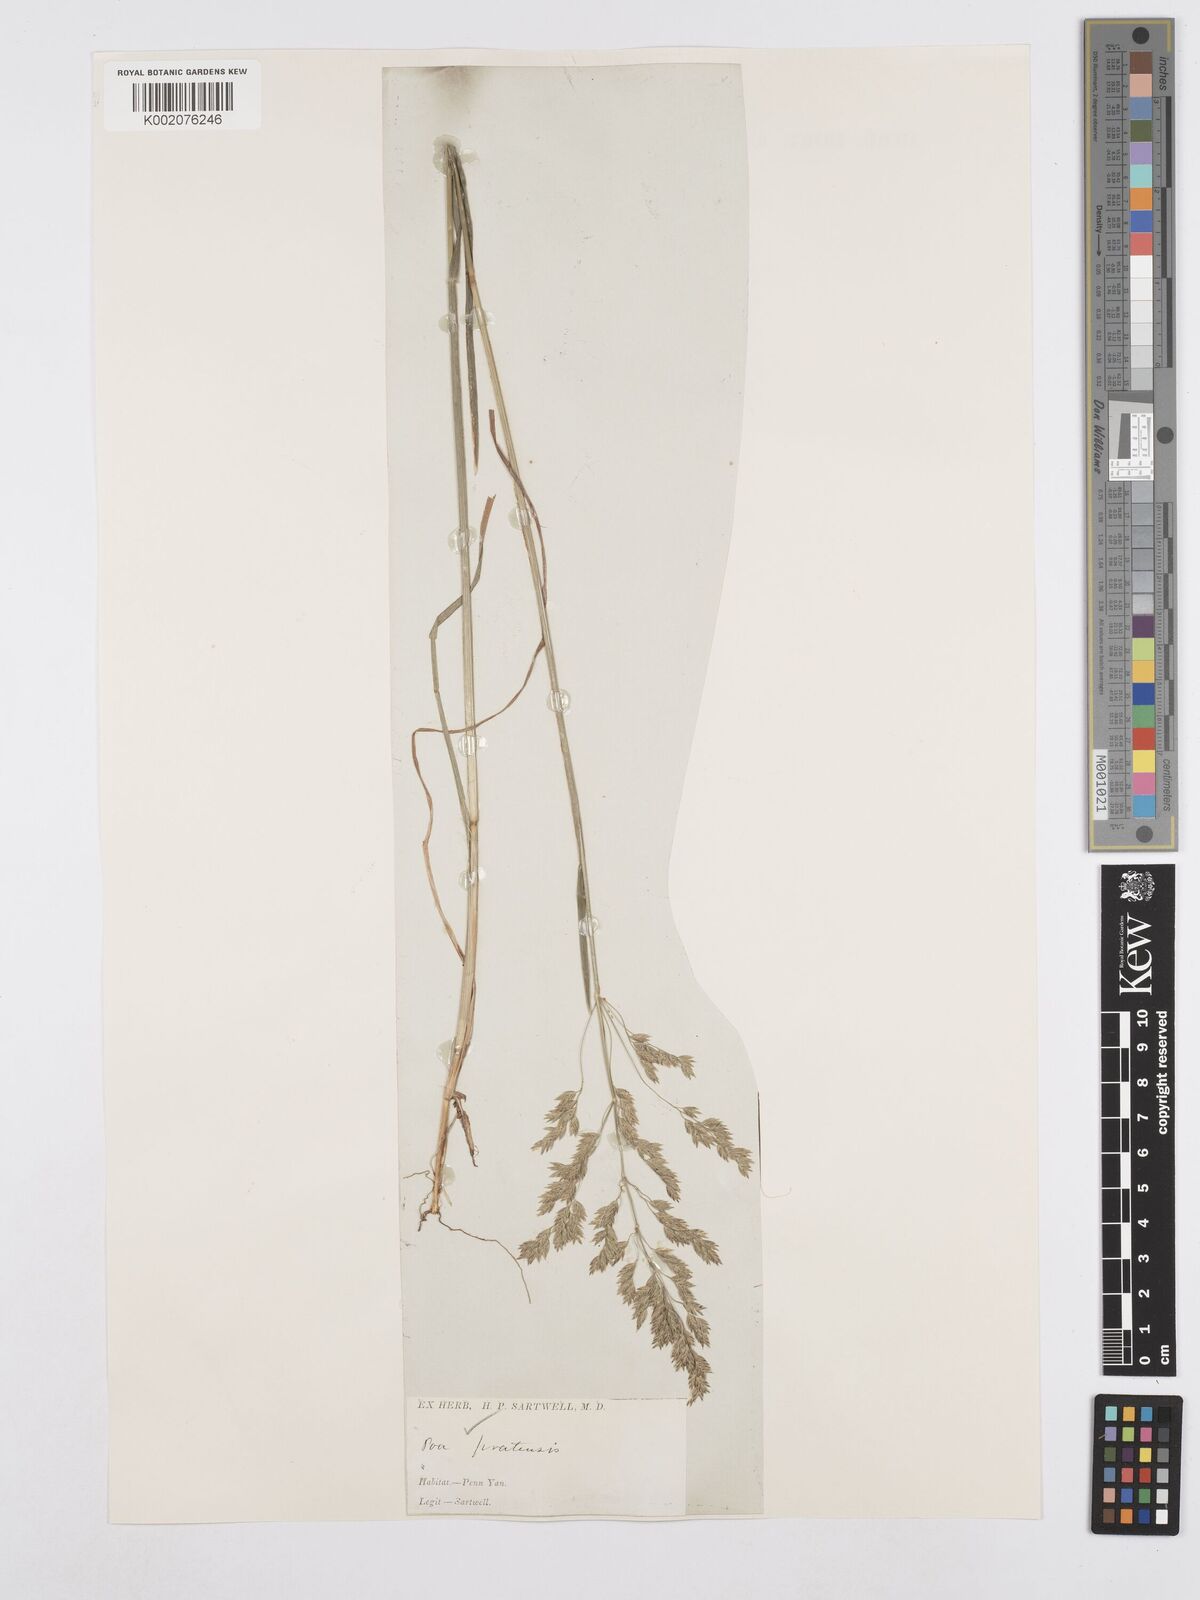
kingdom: Plantae
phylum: Tracheophyta
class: Liliopsida
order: Poales
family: Poaceae
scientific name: Poaceae
